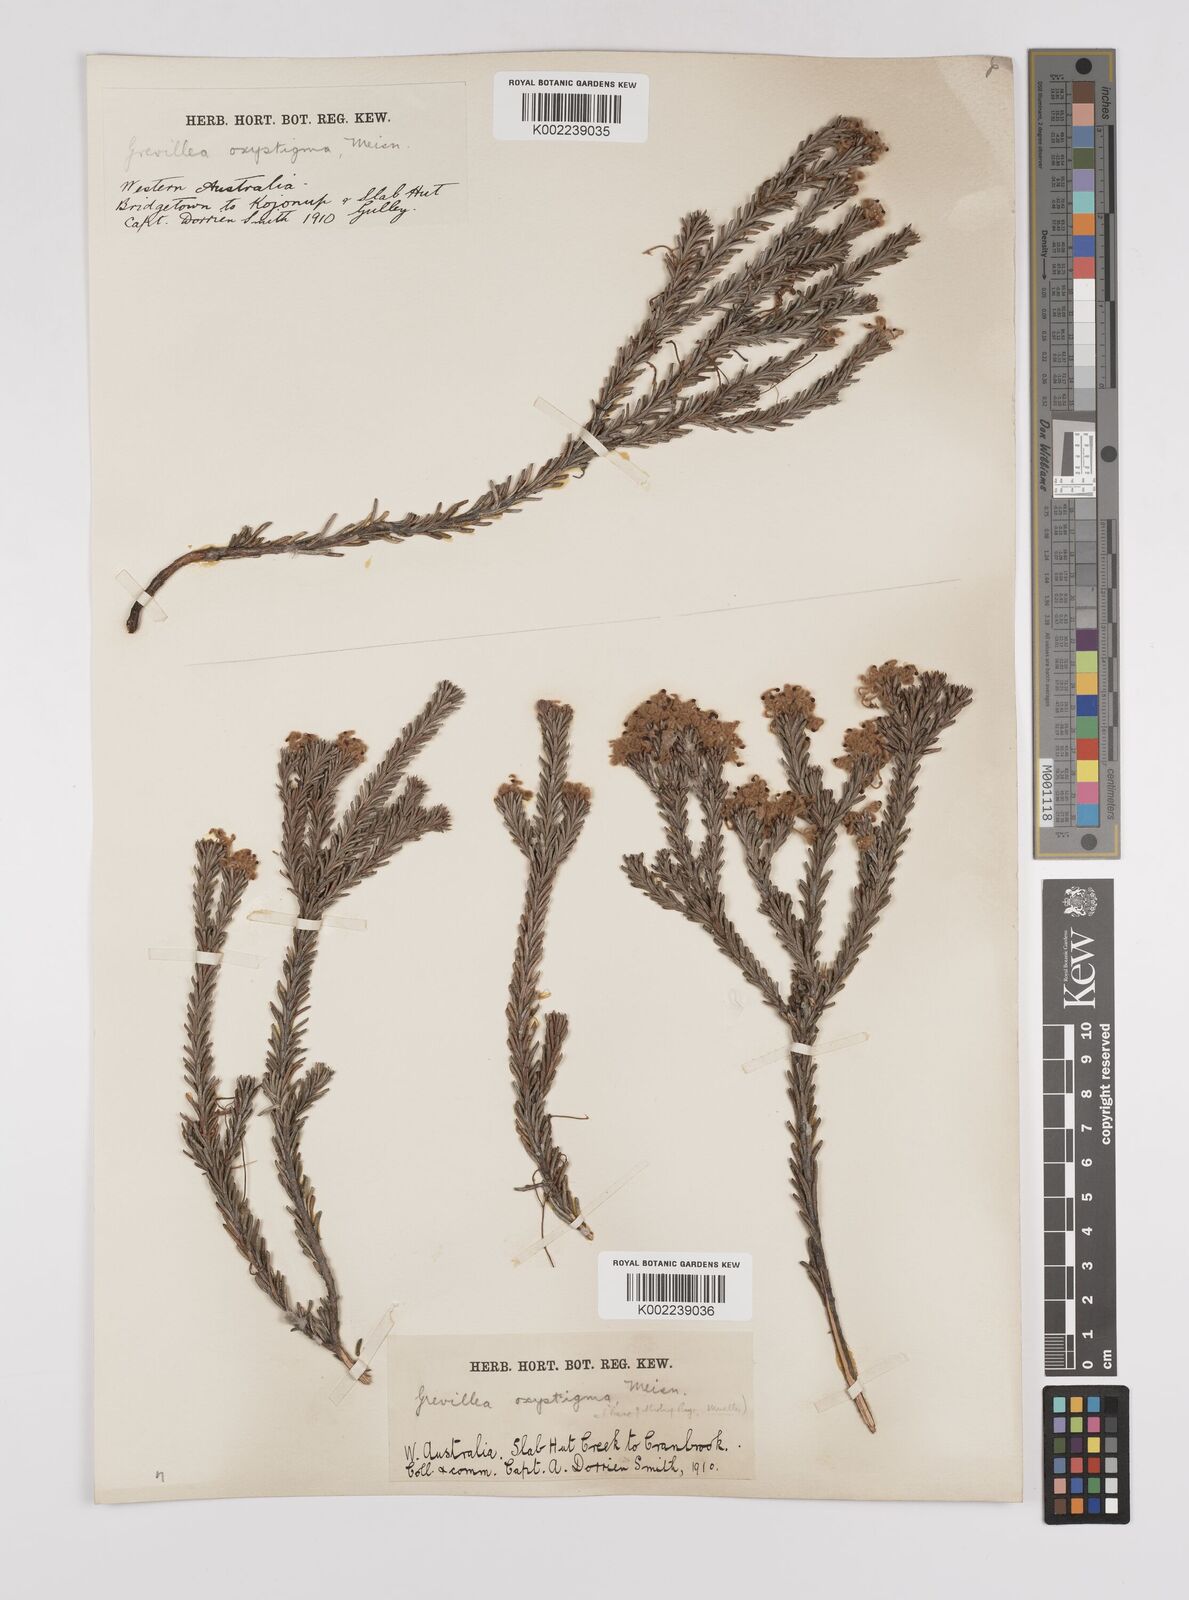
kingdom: Plantae
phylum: Tracheophyta
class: Magnoliopsida
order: Proteales
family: Proteaceae
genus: Grevillea
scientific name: Grevillea pilulifera
